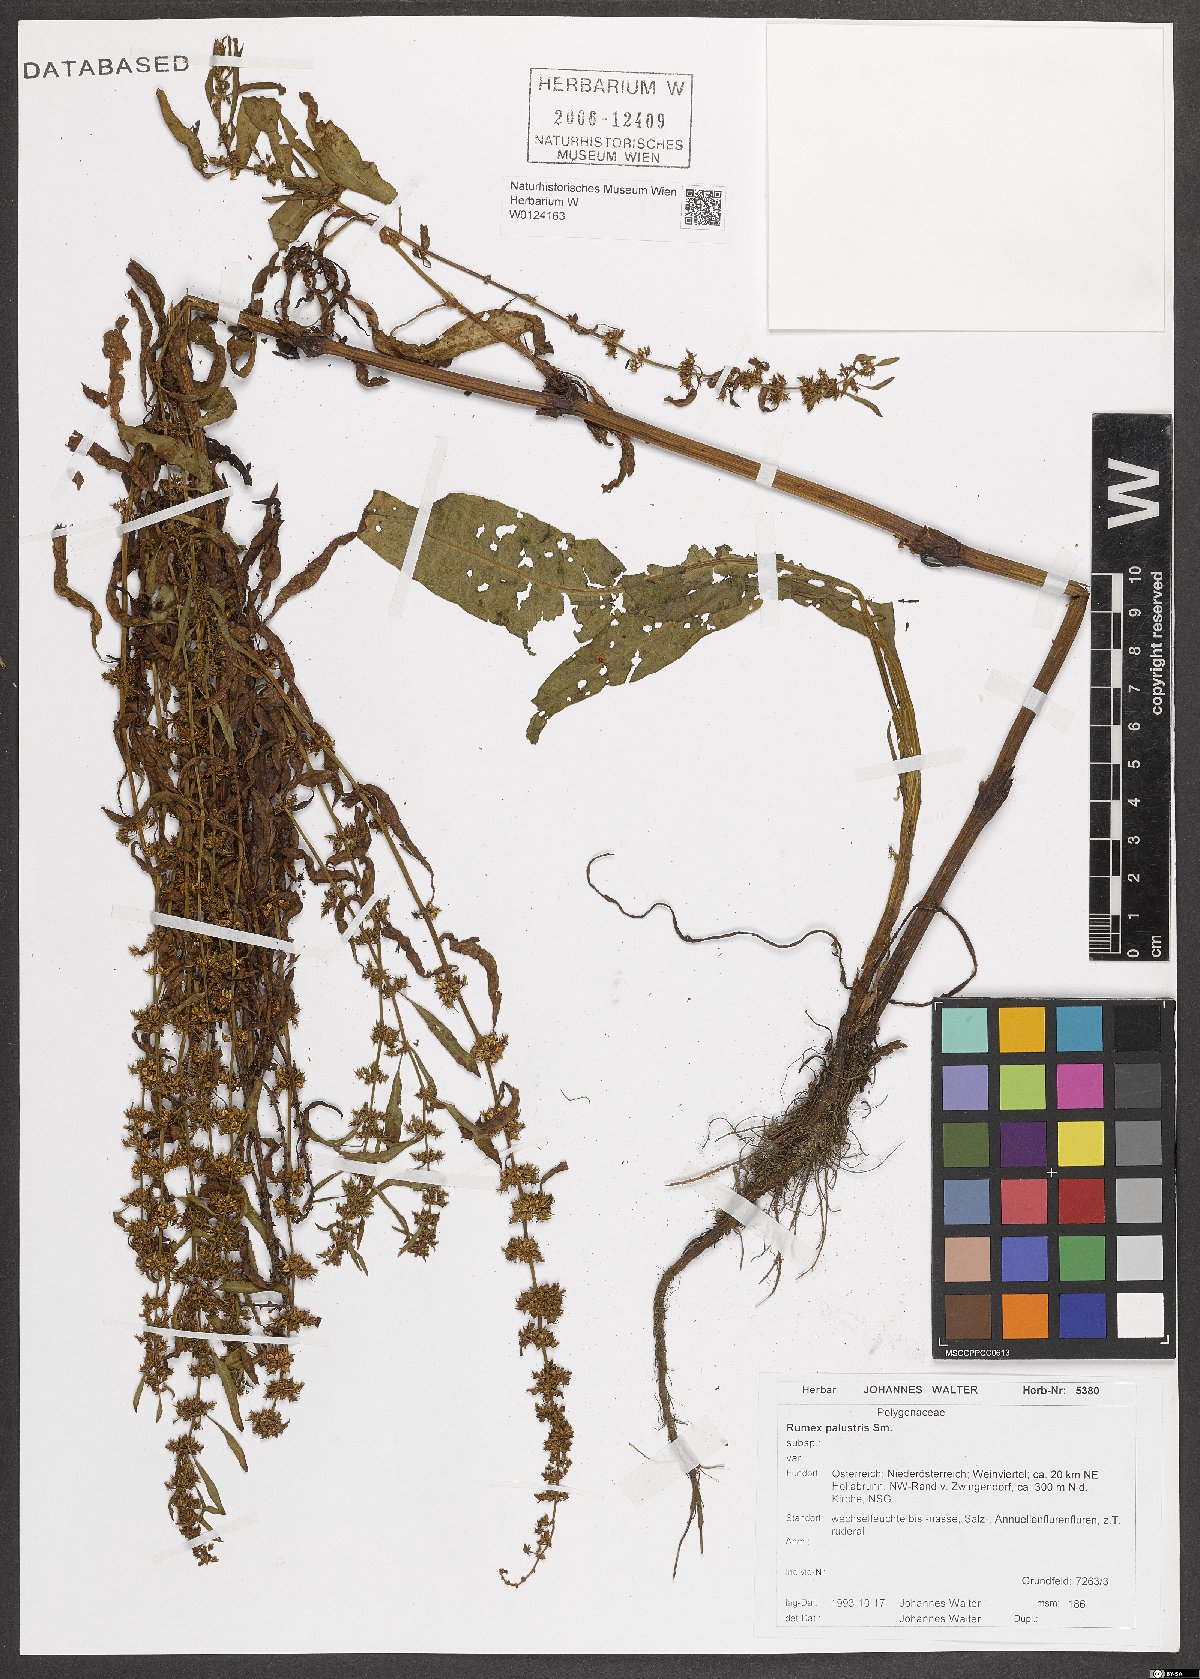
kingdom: Plantae
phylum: Tracheophyta
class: Magnoliopsida
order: Caryophyllales
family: Polygonaceae
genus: Rumex
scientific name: Rumex palustris
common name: Marsh dock
